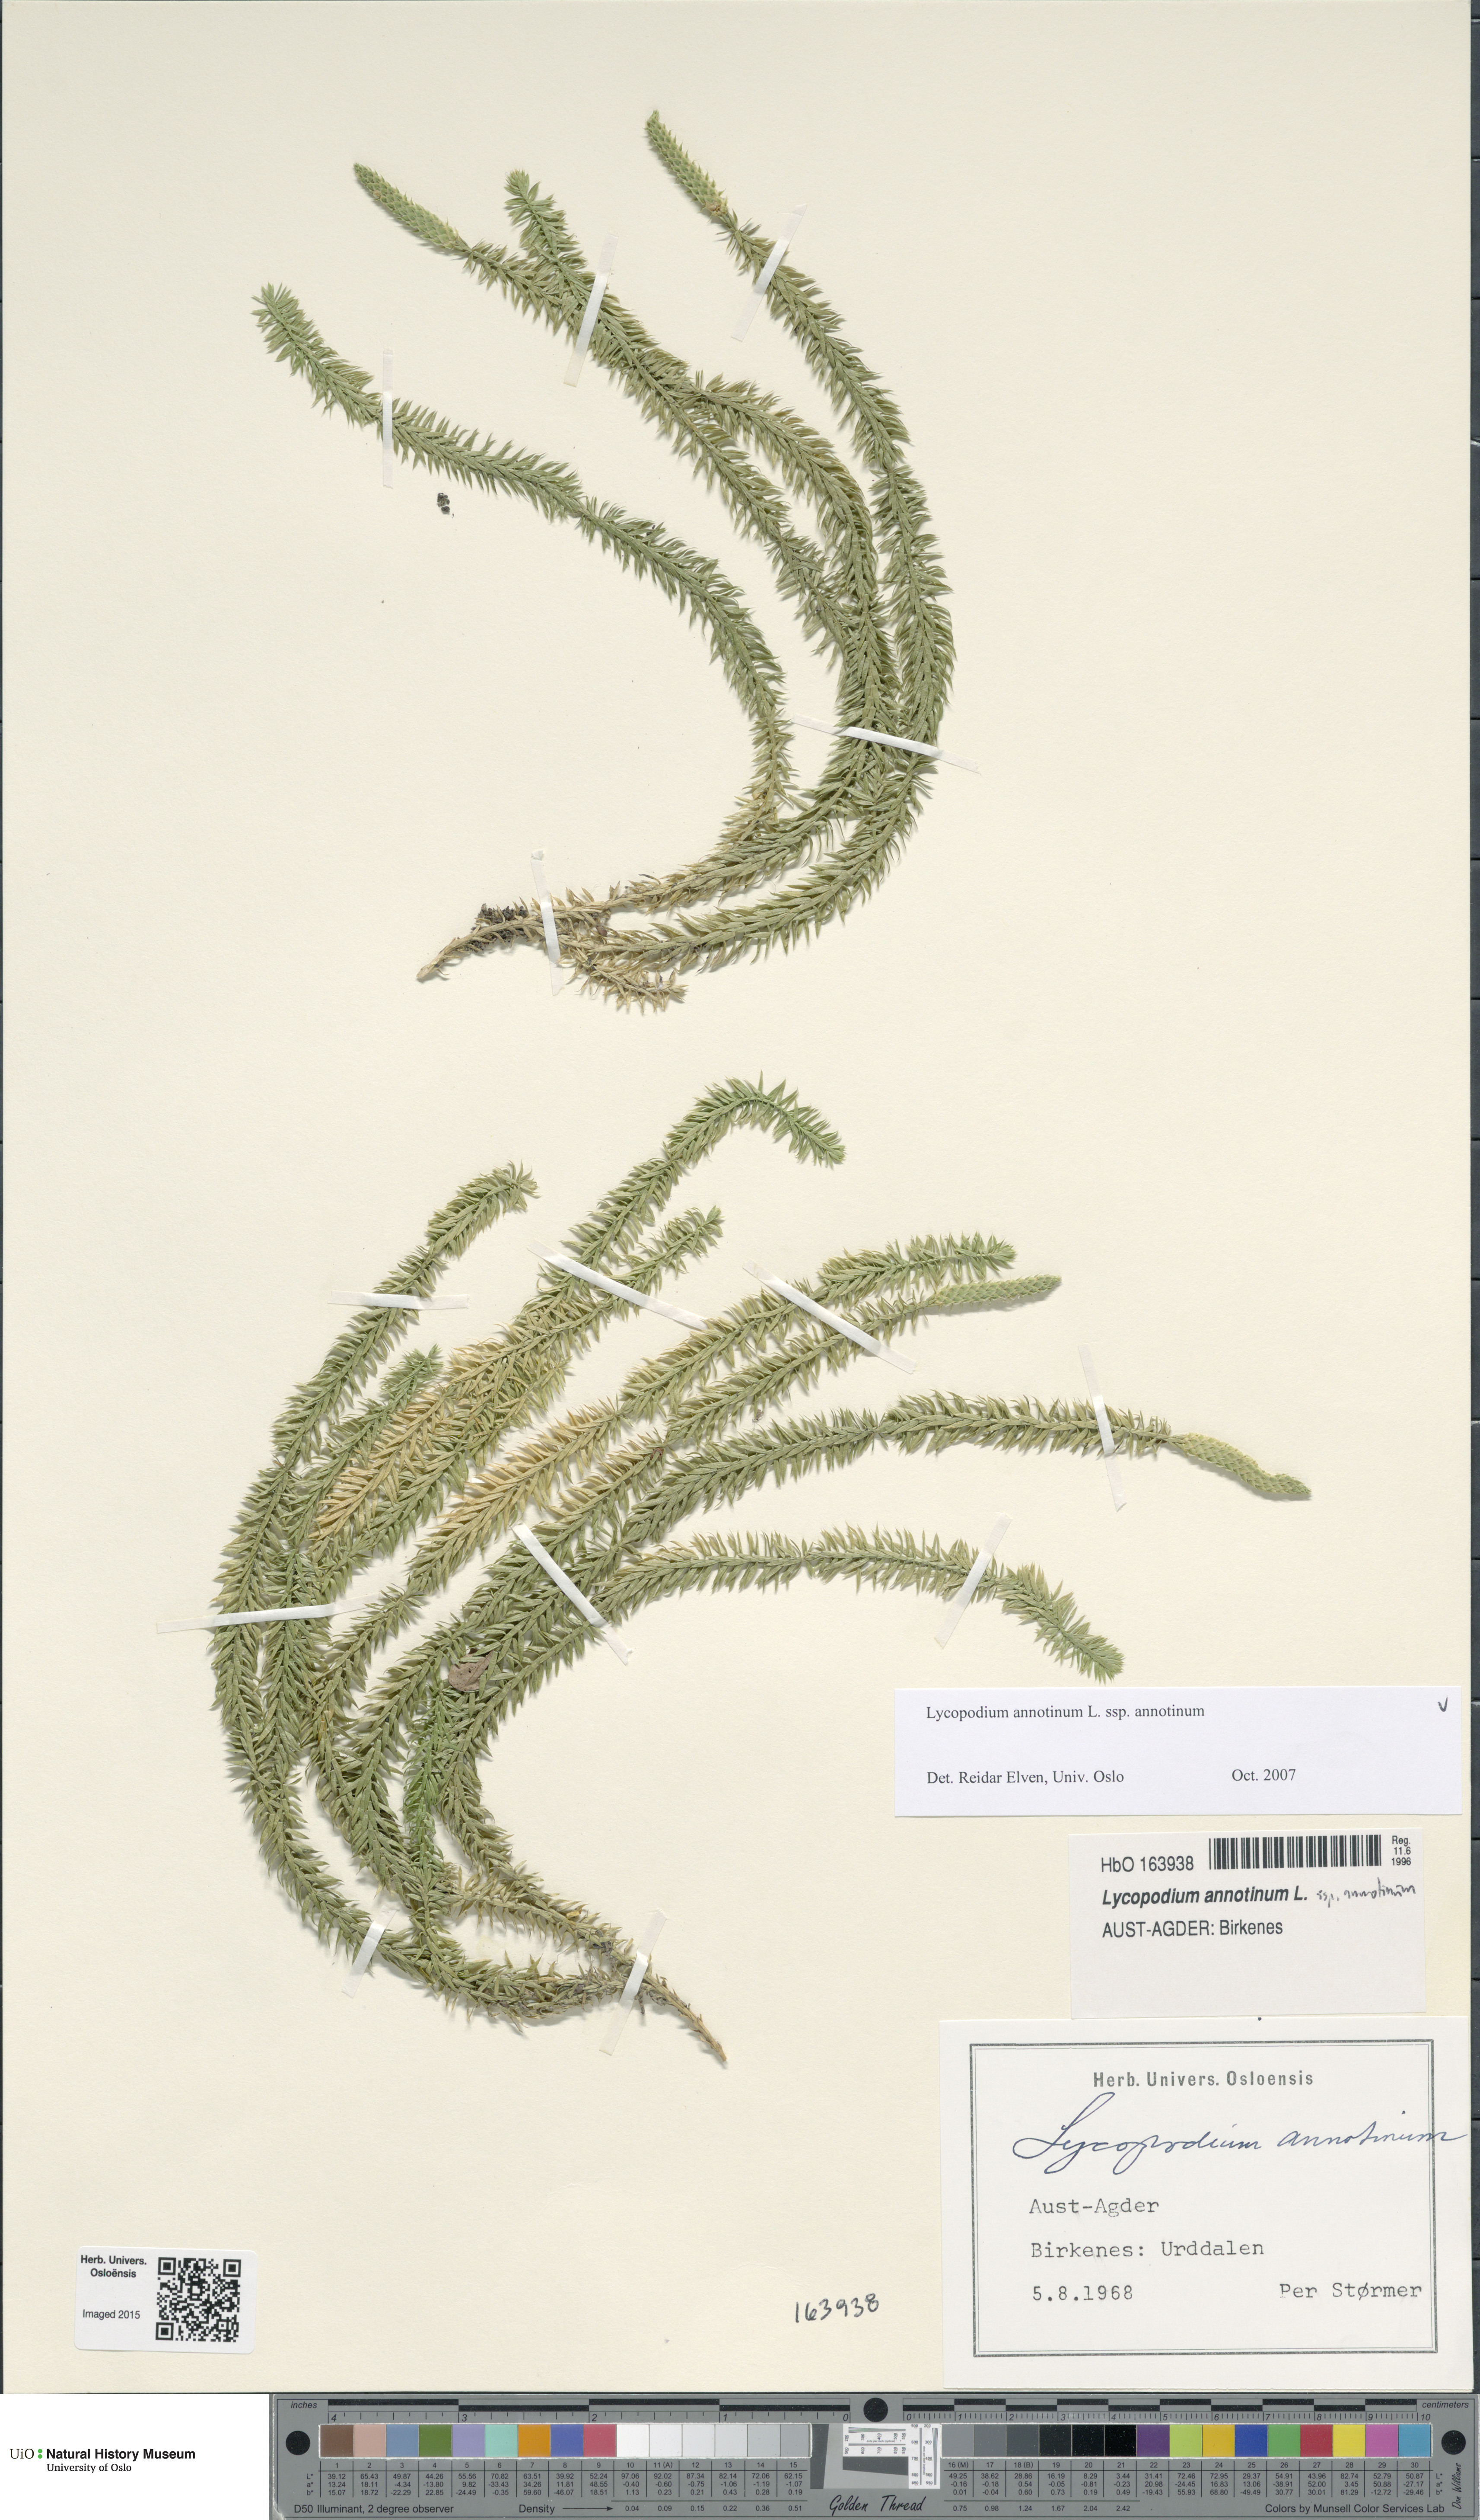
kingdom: Plantae
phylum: Tracheophyta
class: Lycopodiopsida
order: Lycopodiales
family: Lycopodiaceae
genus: Spinulum
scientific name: Spinulum annotinum
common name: Interrupted club-moss
